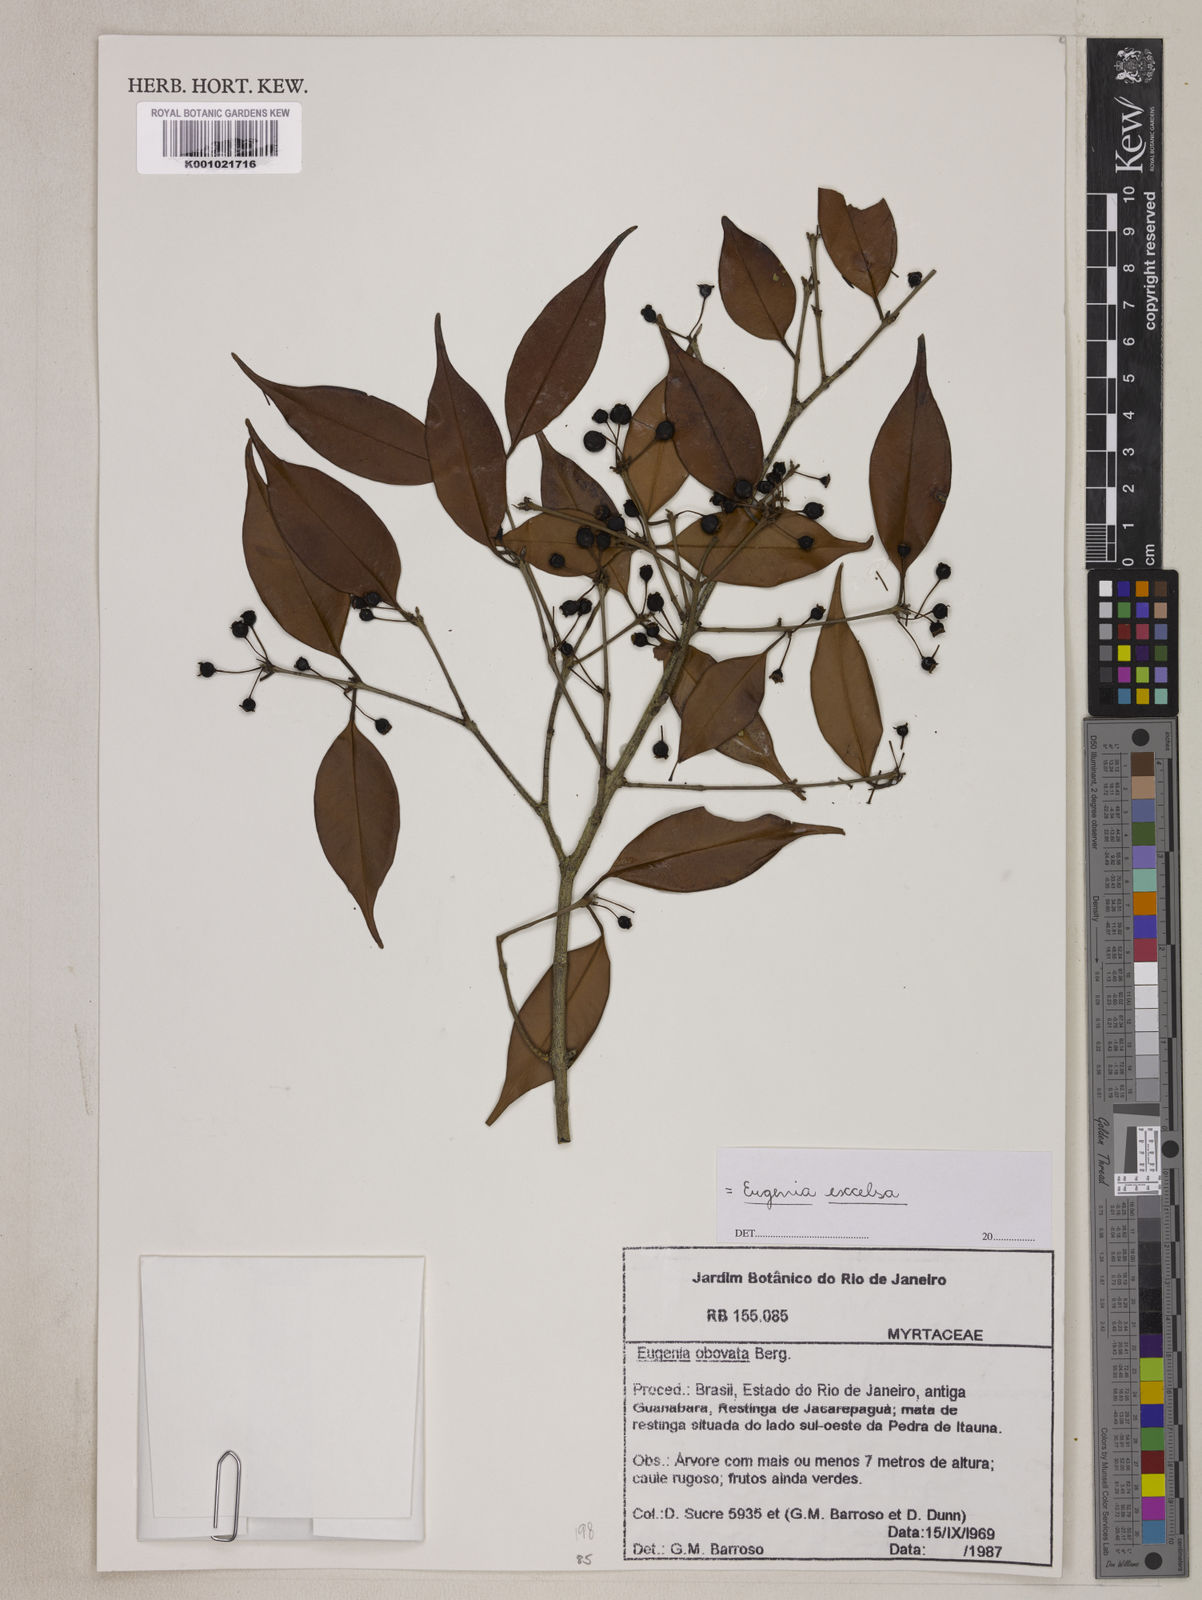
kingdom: Plantae
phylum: Tracheophyta
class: Magnoliopsida
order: Myrtales
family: Myrtaceae
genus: Eugenia
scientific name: Eugenia zuccarinii
